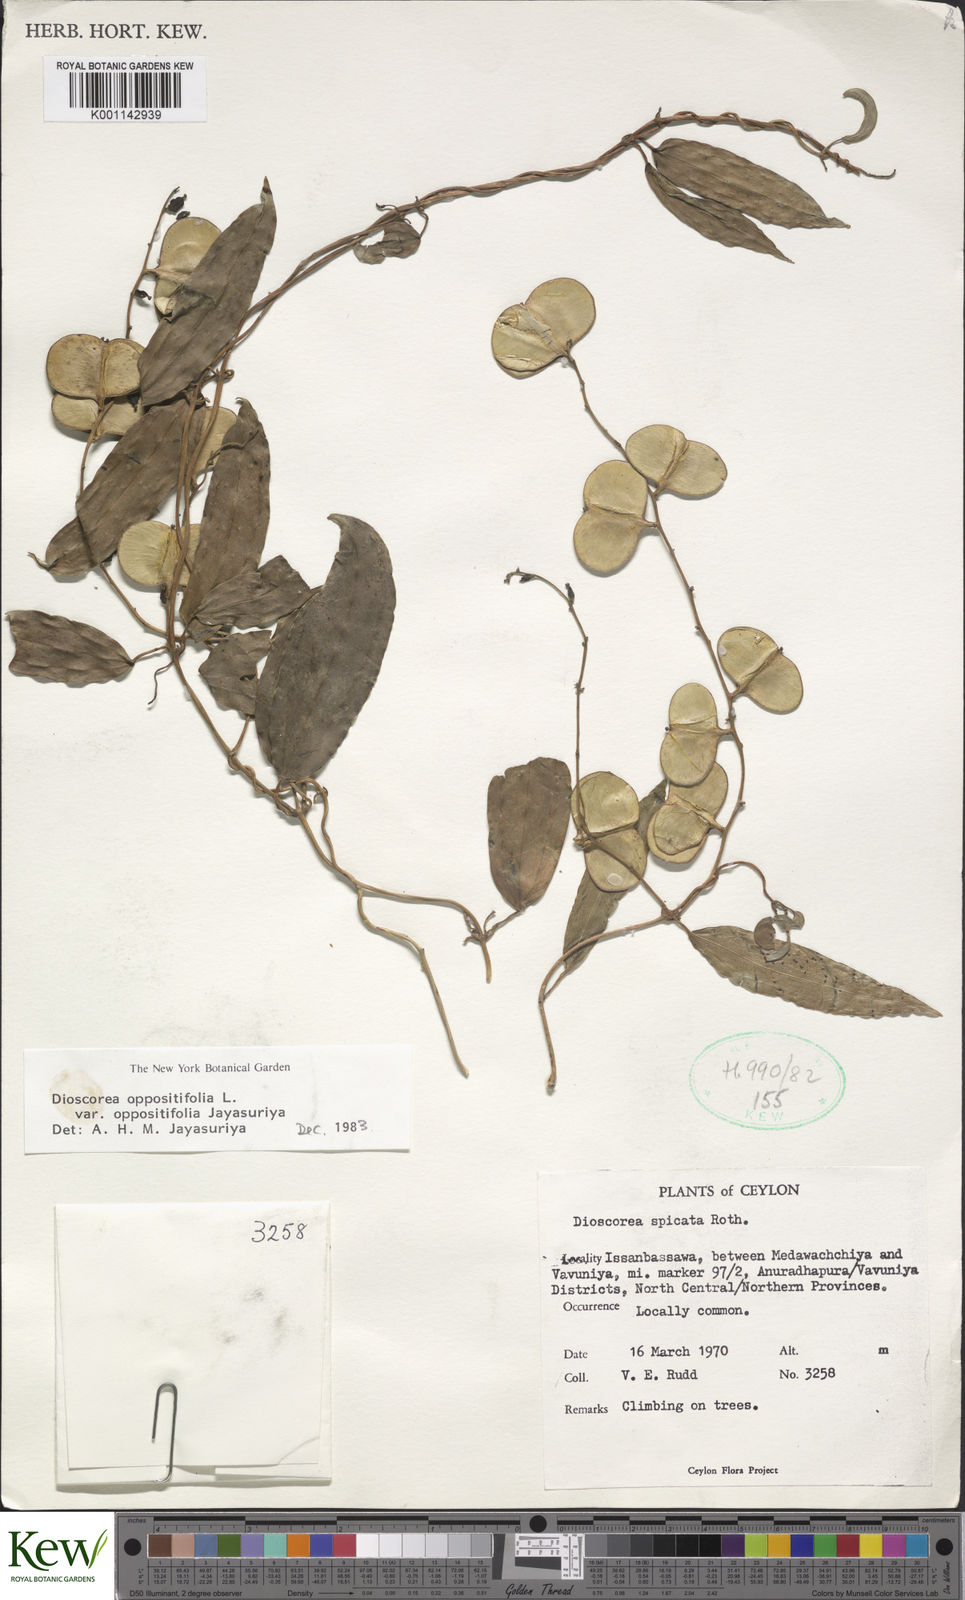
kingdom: Plantae
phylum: Tracheophyta
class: Liliopsida
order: Dioscoreales
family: Dioscoreaceae
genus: Dioscorea
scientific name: Dioscorea oppositifolia
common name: Chinese yam
